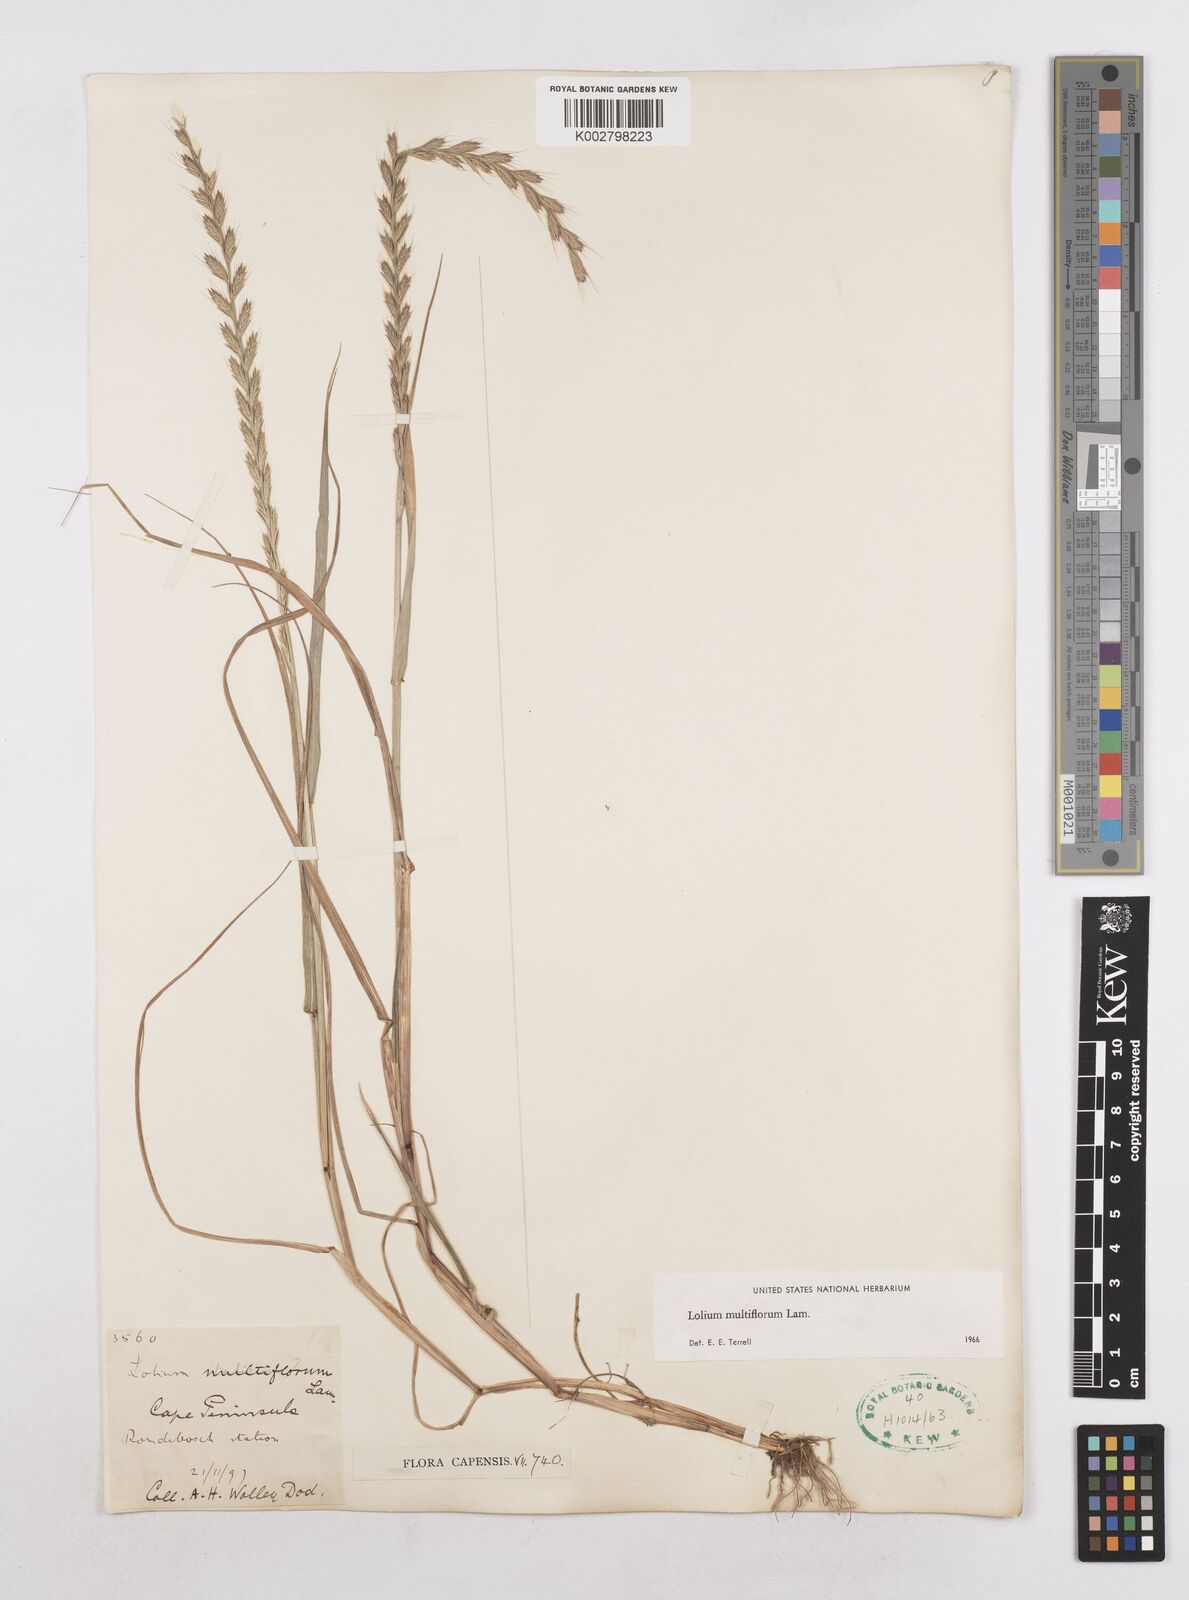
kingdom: Plantae
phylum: Tracheophyta
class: Liliopsida
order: Poales
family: Poaceae
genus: Lolium
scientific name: Lolium multiflorum
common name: Annual ryegrass
